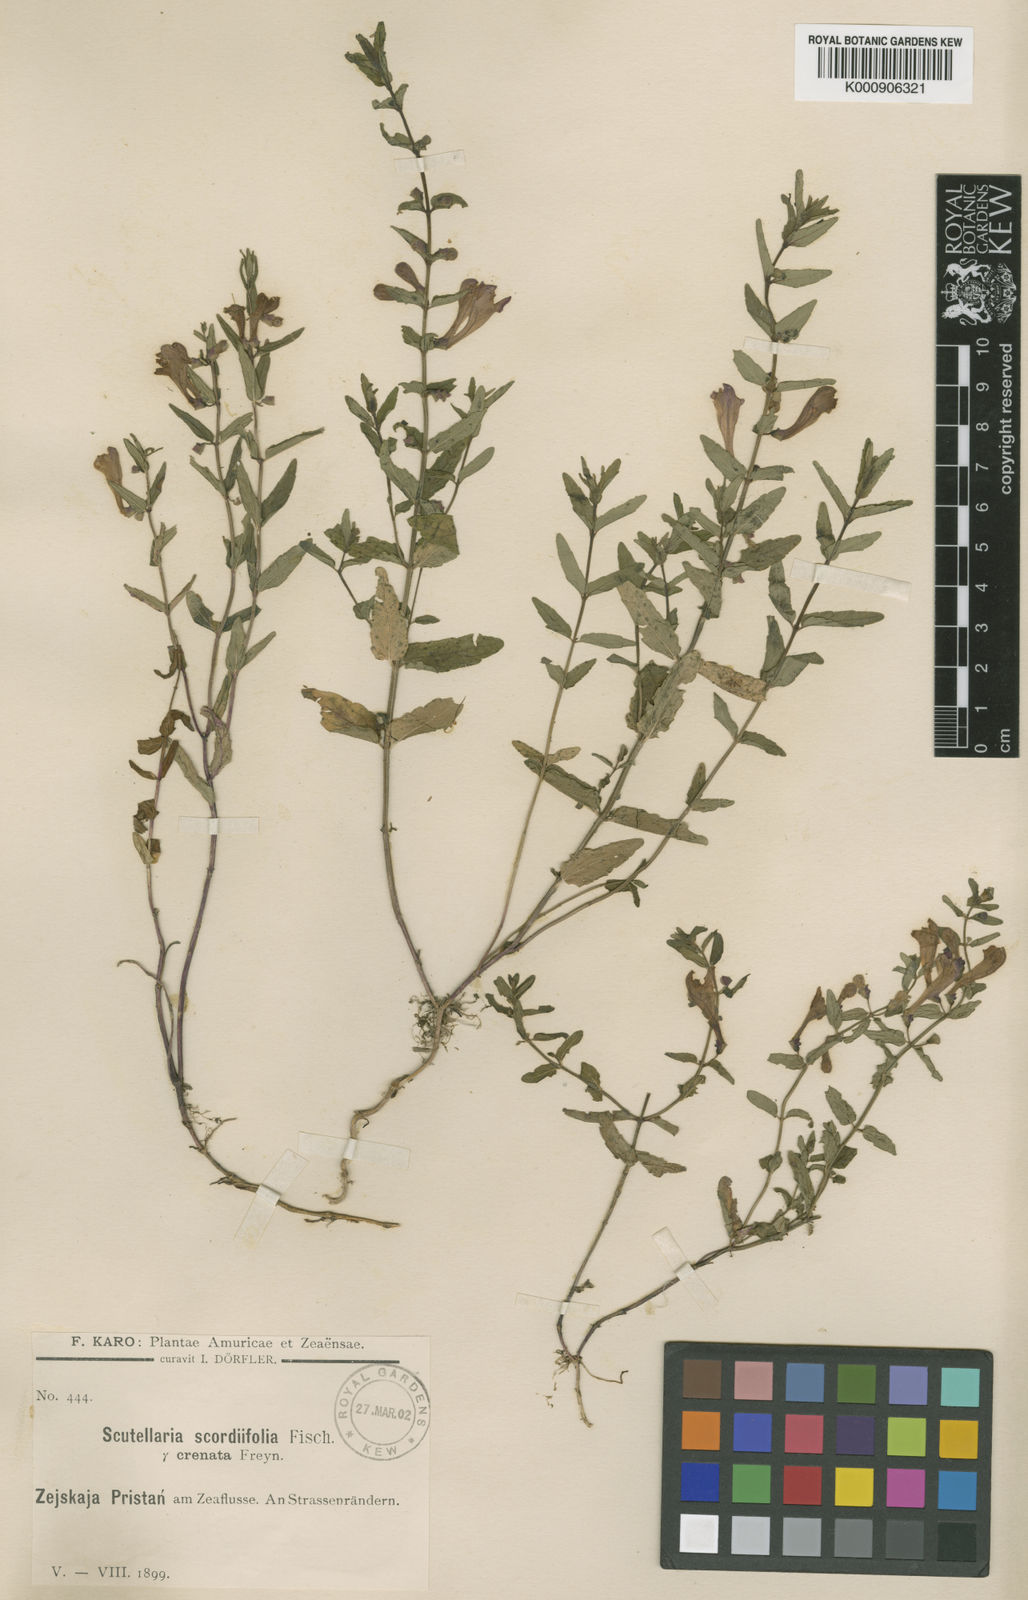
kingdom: Plantae
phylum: Tracheophyta
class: Magnoliopsida
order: Lamiales
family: Lamiaceae
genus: Scutellaria
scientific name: Scutellaria scordiifolia
